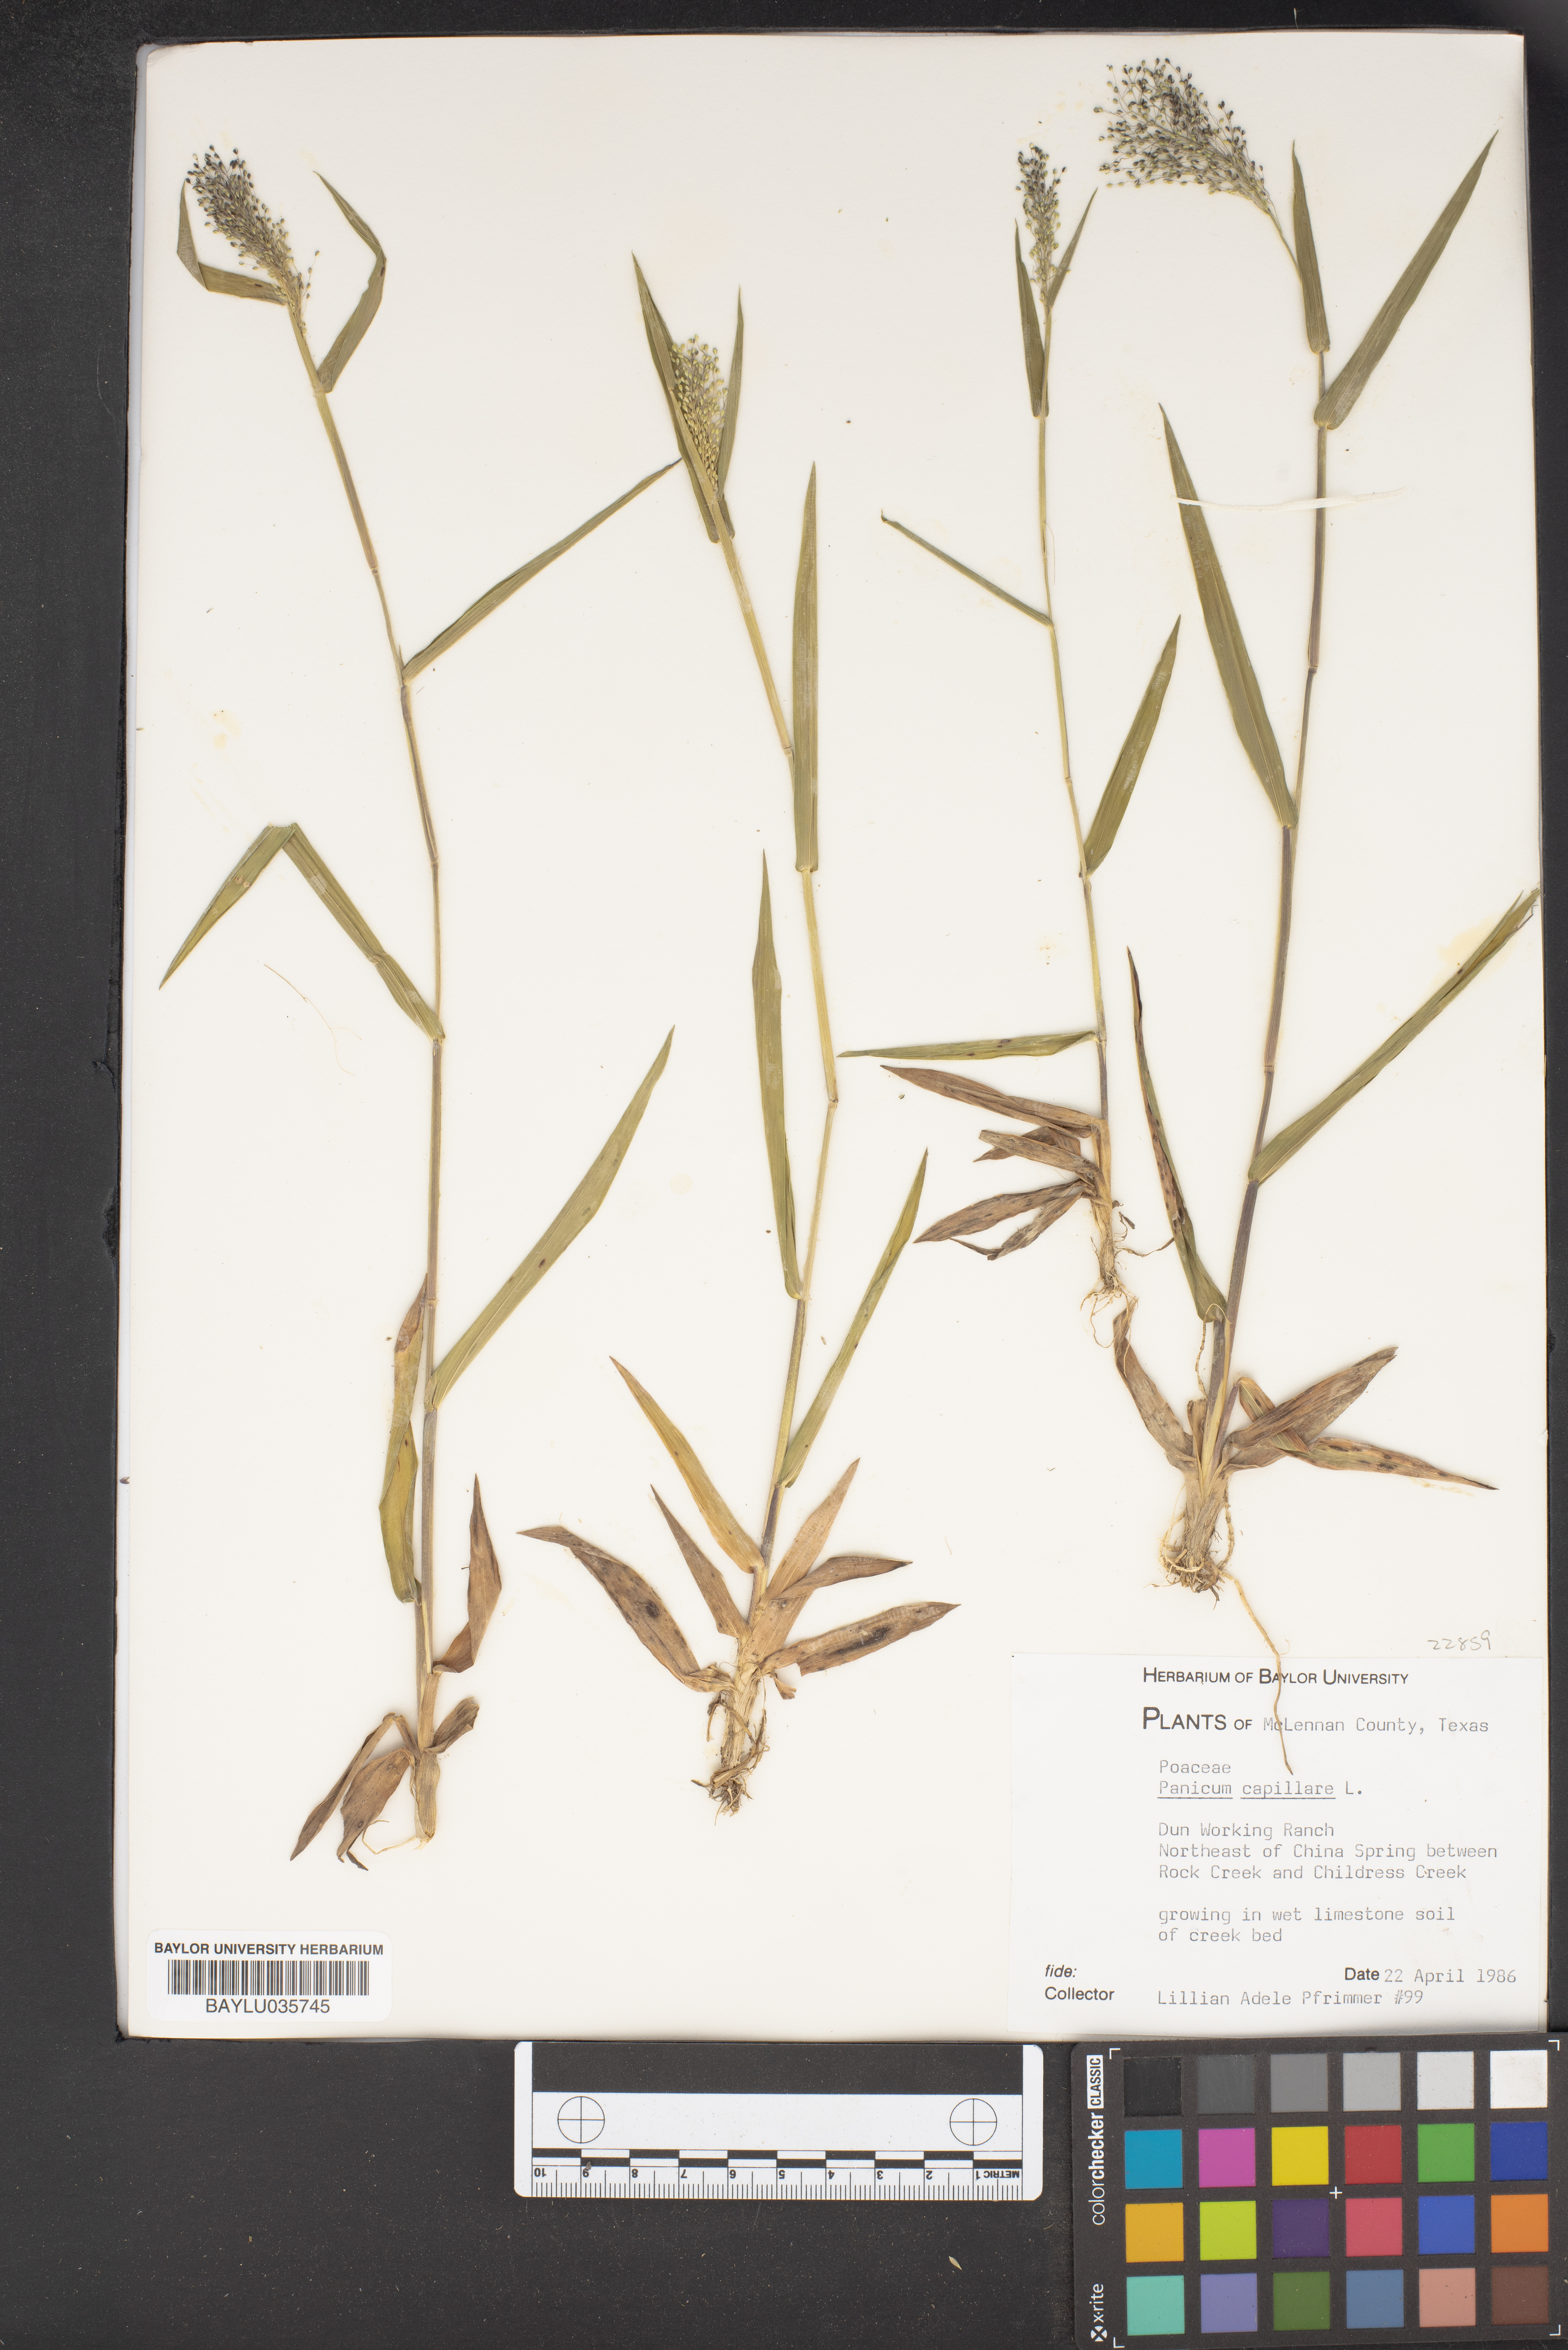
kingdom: Plantae
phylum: Tracheophyta
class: Liliopsida
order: Poales
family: Poaceae
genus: Panicum
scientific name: Panicum capillare
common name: Witch-grass
